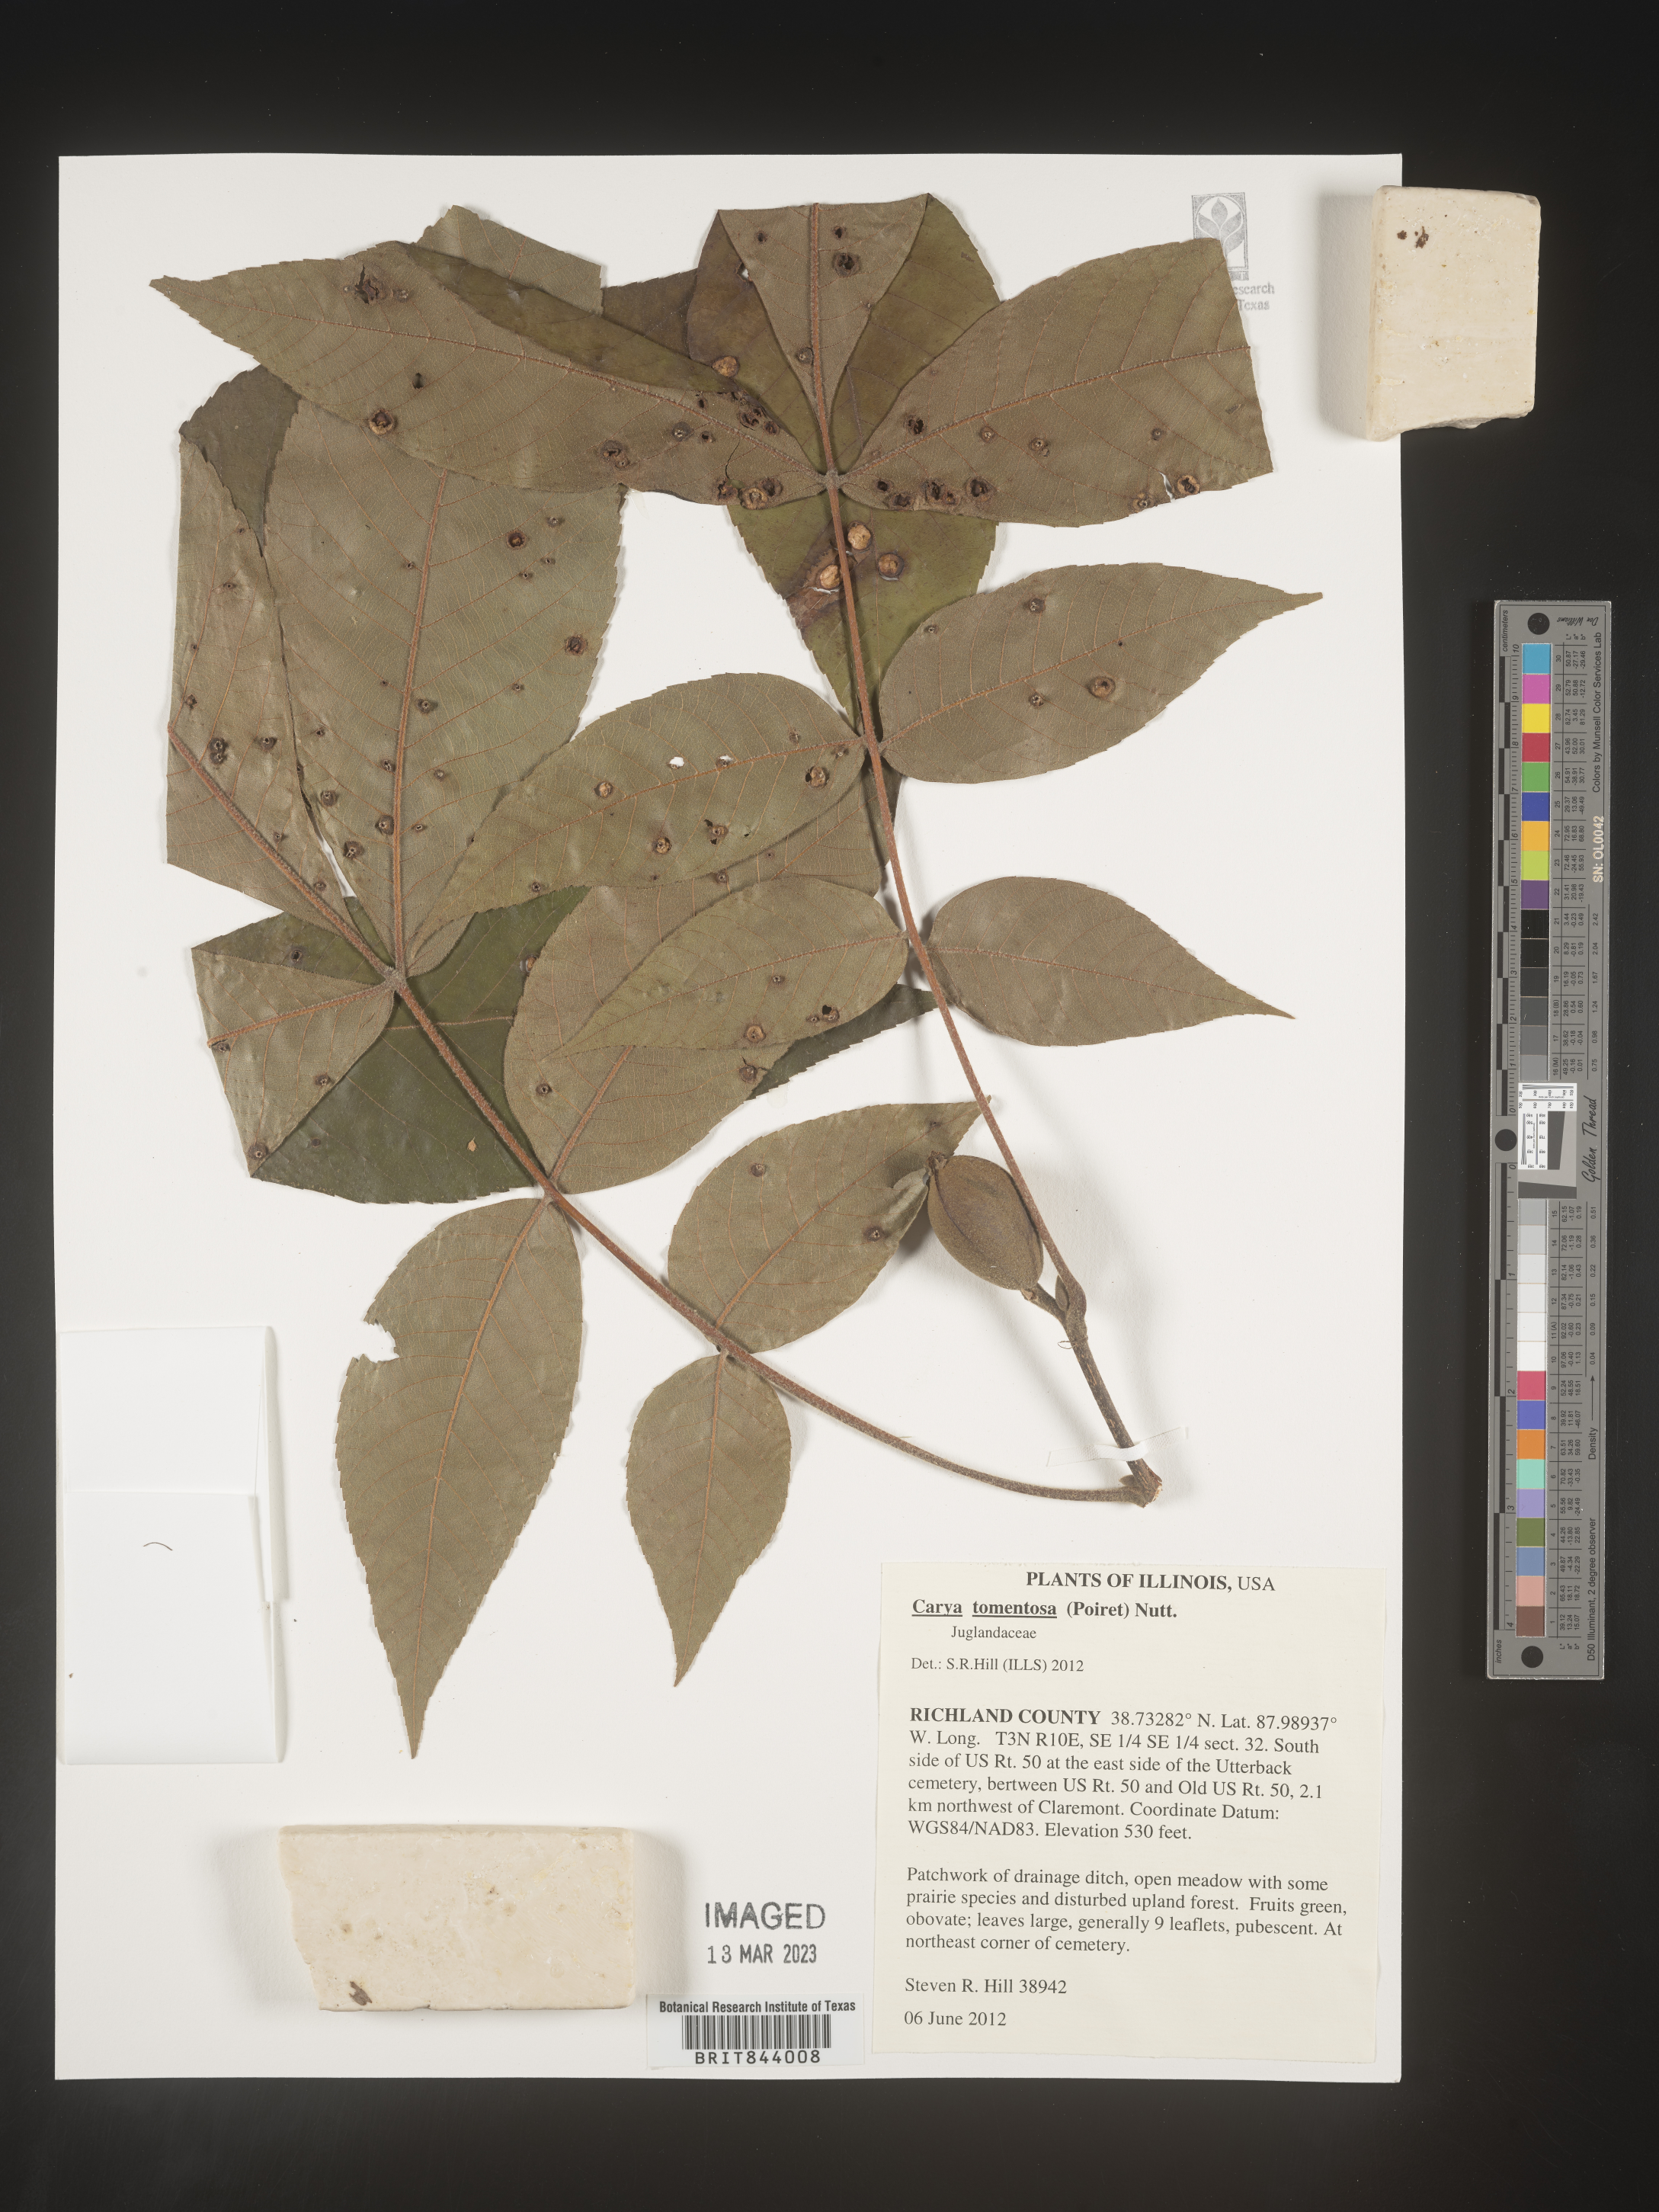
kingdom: Plantae
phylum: Tracheophyta
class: Magnoliopsida
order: Fagales
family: Juglandaceae
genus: Carya
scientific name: Carya alba
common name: Mockernut hickory
